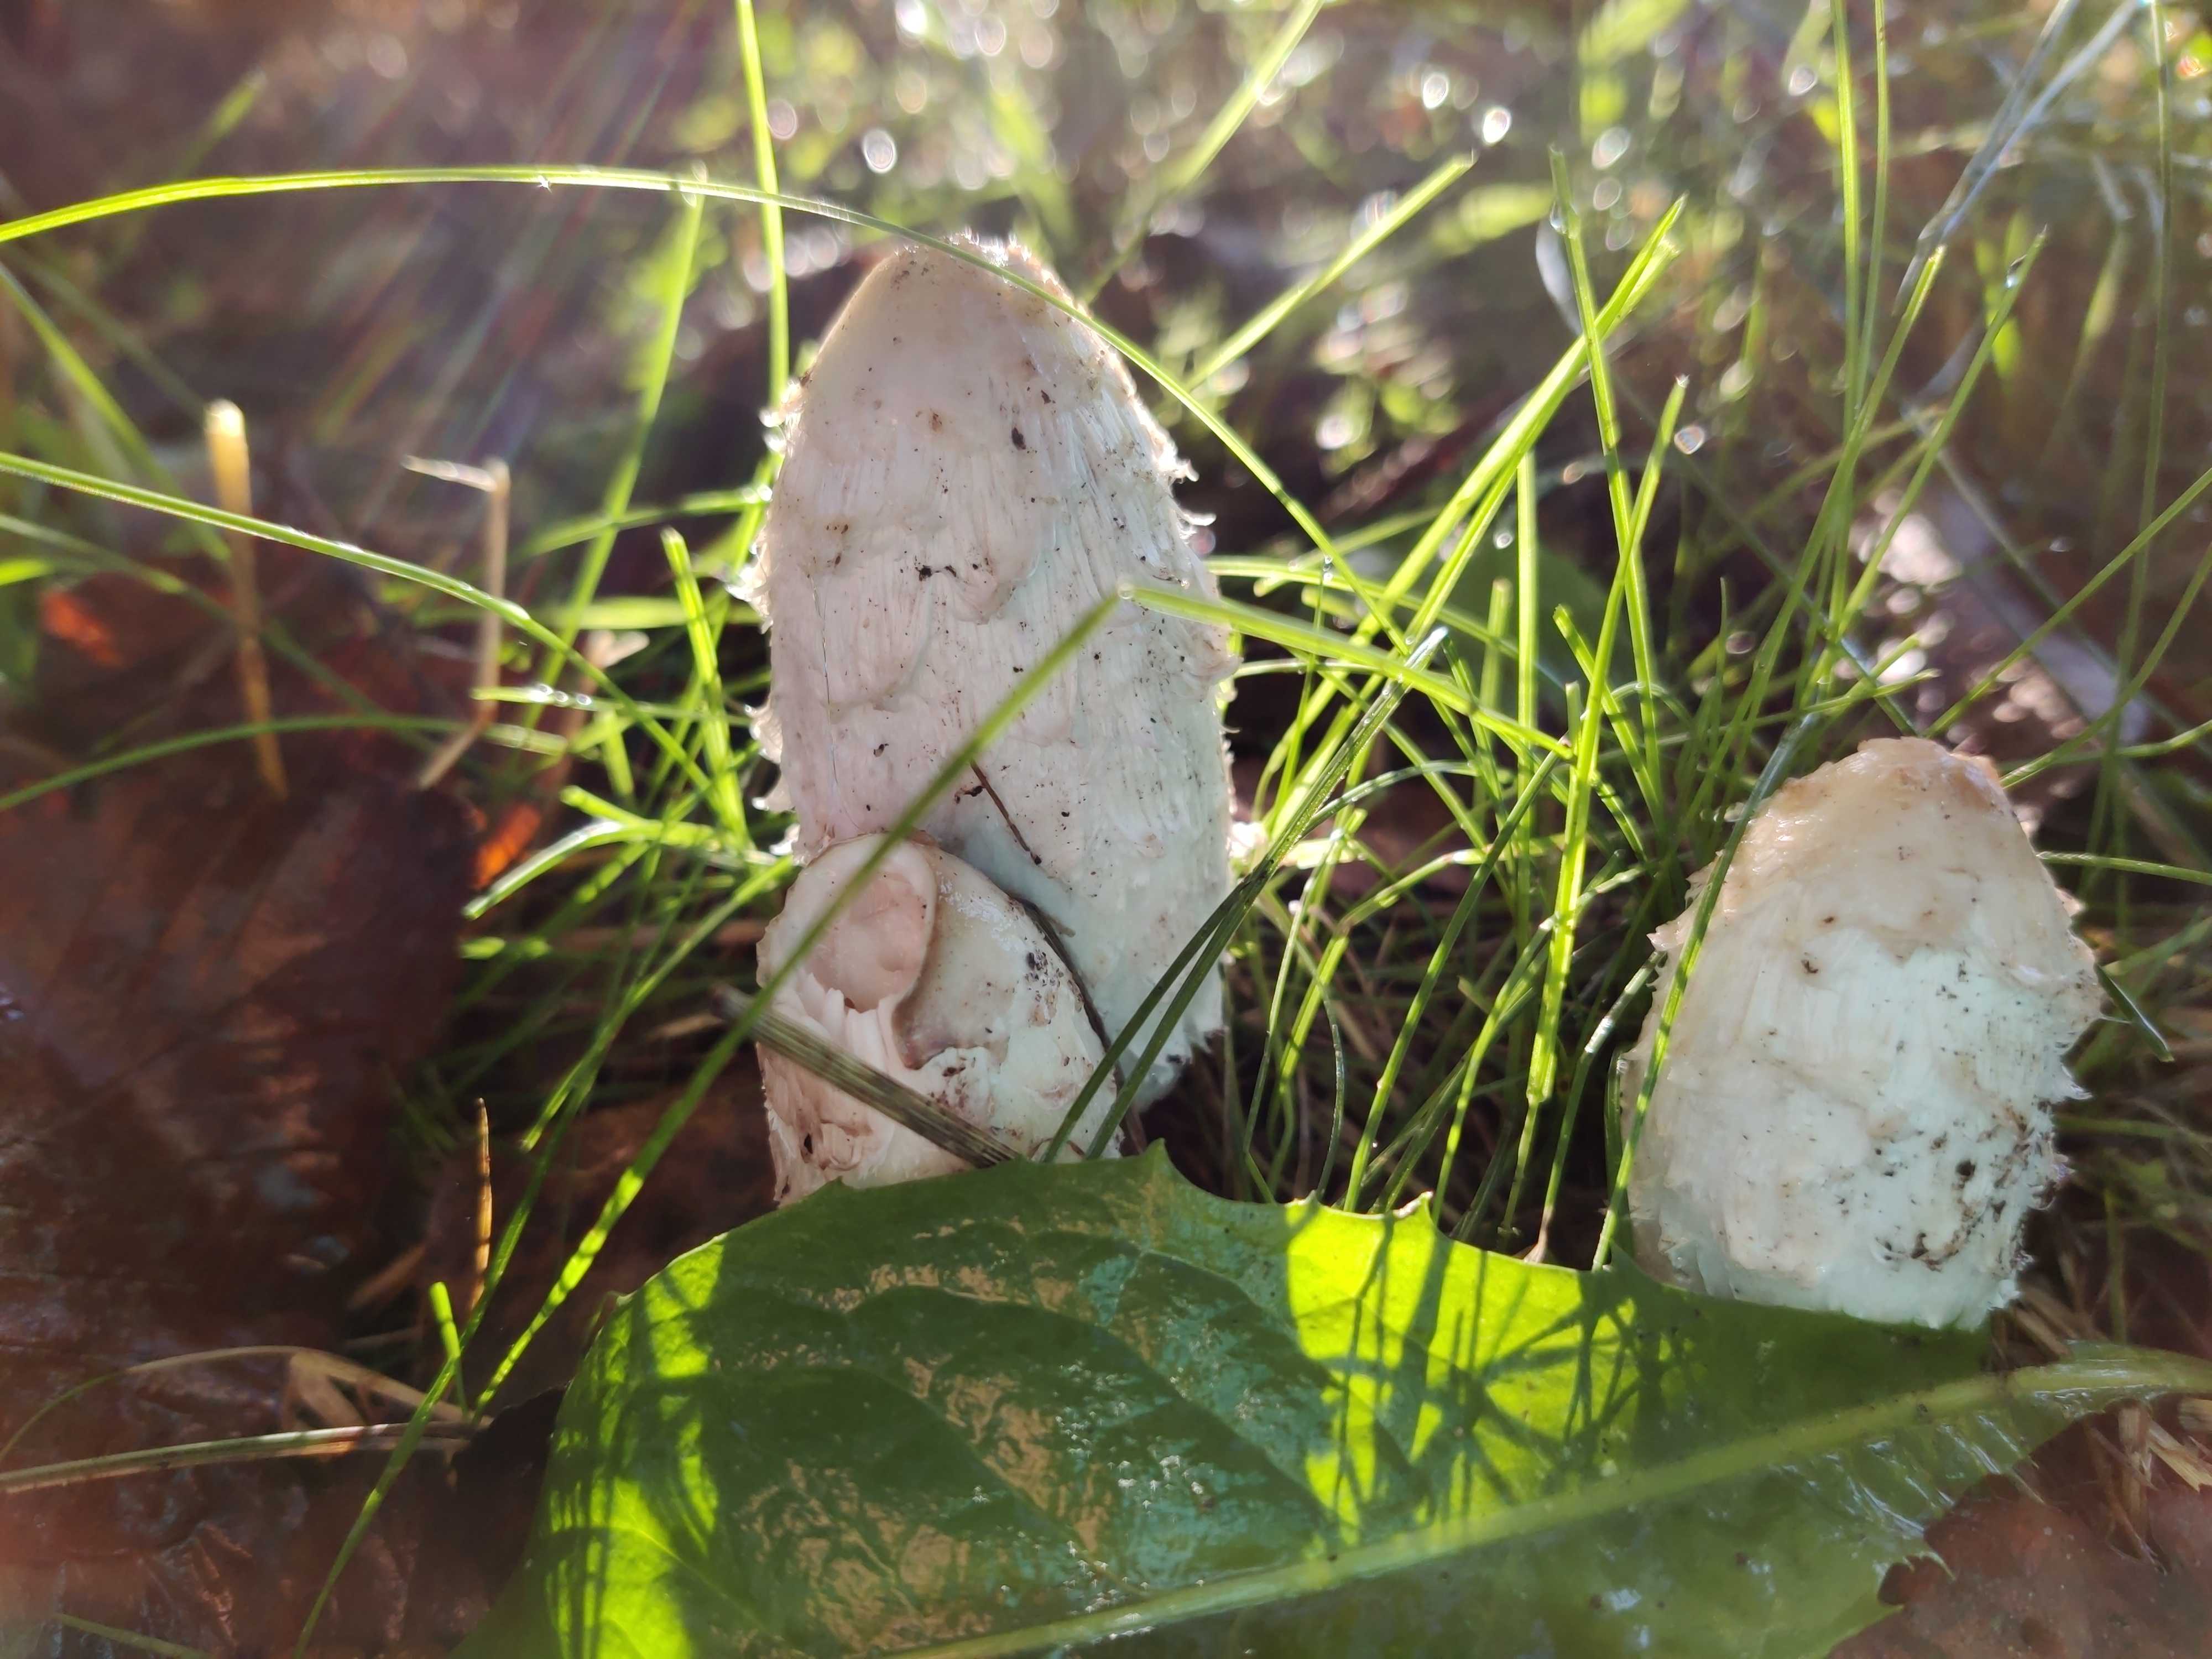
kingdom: Fungi
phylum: Basidiomycota
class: Agaricomycetes
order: Agaricales
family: Agaricaceae
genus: Coprinus
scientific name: Coprinus comatus
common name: stor parykhat
